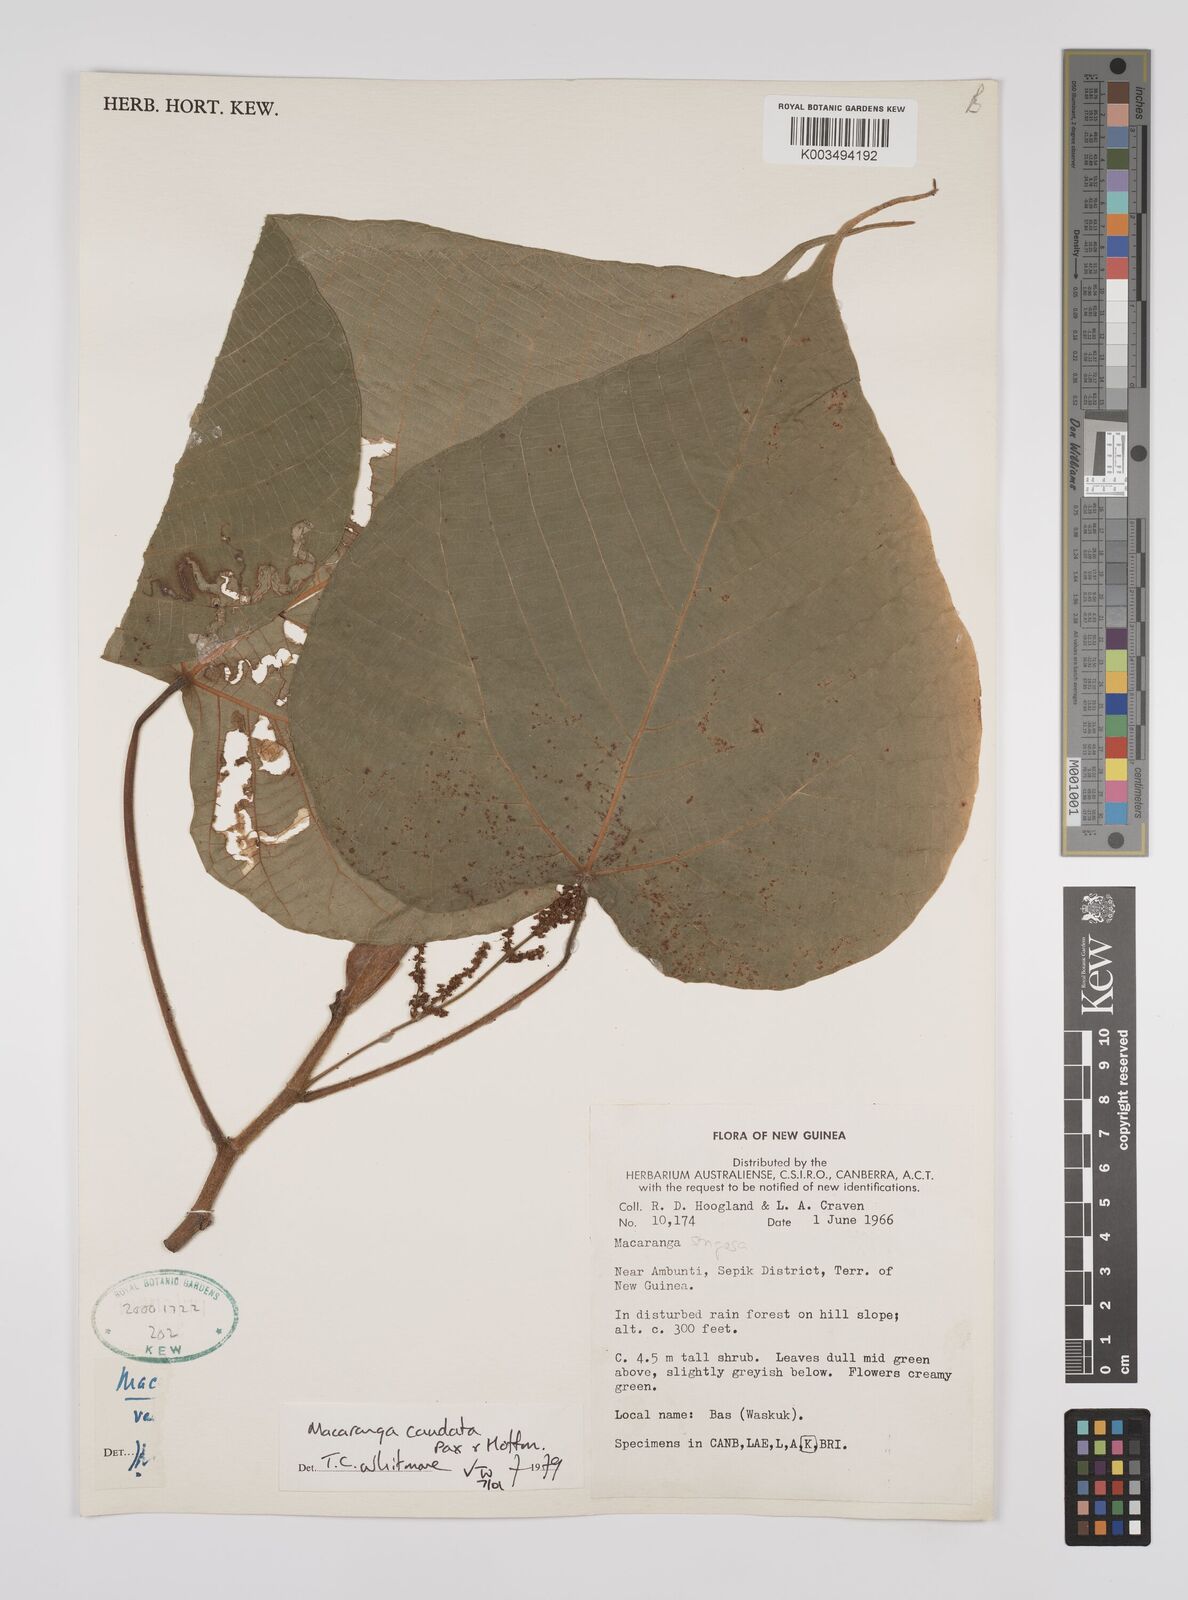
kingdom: Plantae
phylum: Tracheophyta
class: Magnoliopsida
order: Malpighiales
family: Euphorbiaceae
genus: Macaranga
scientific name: Macaranga caudata
